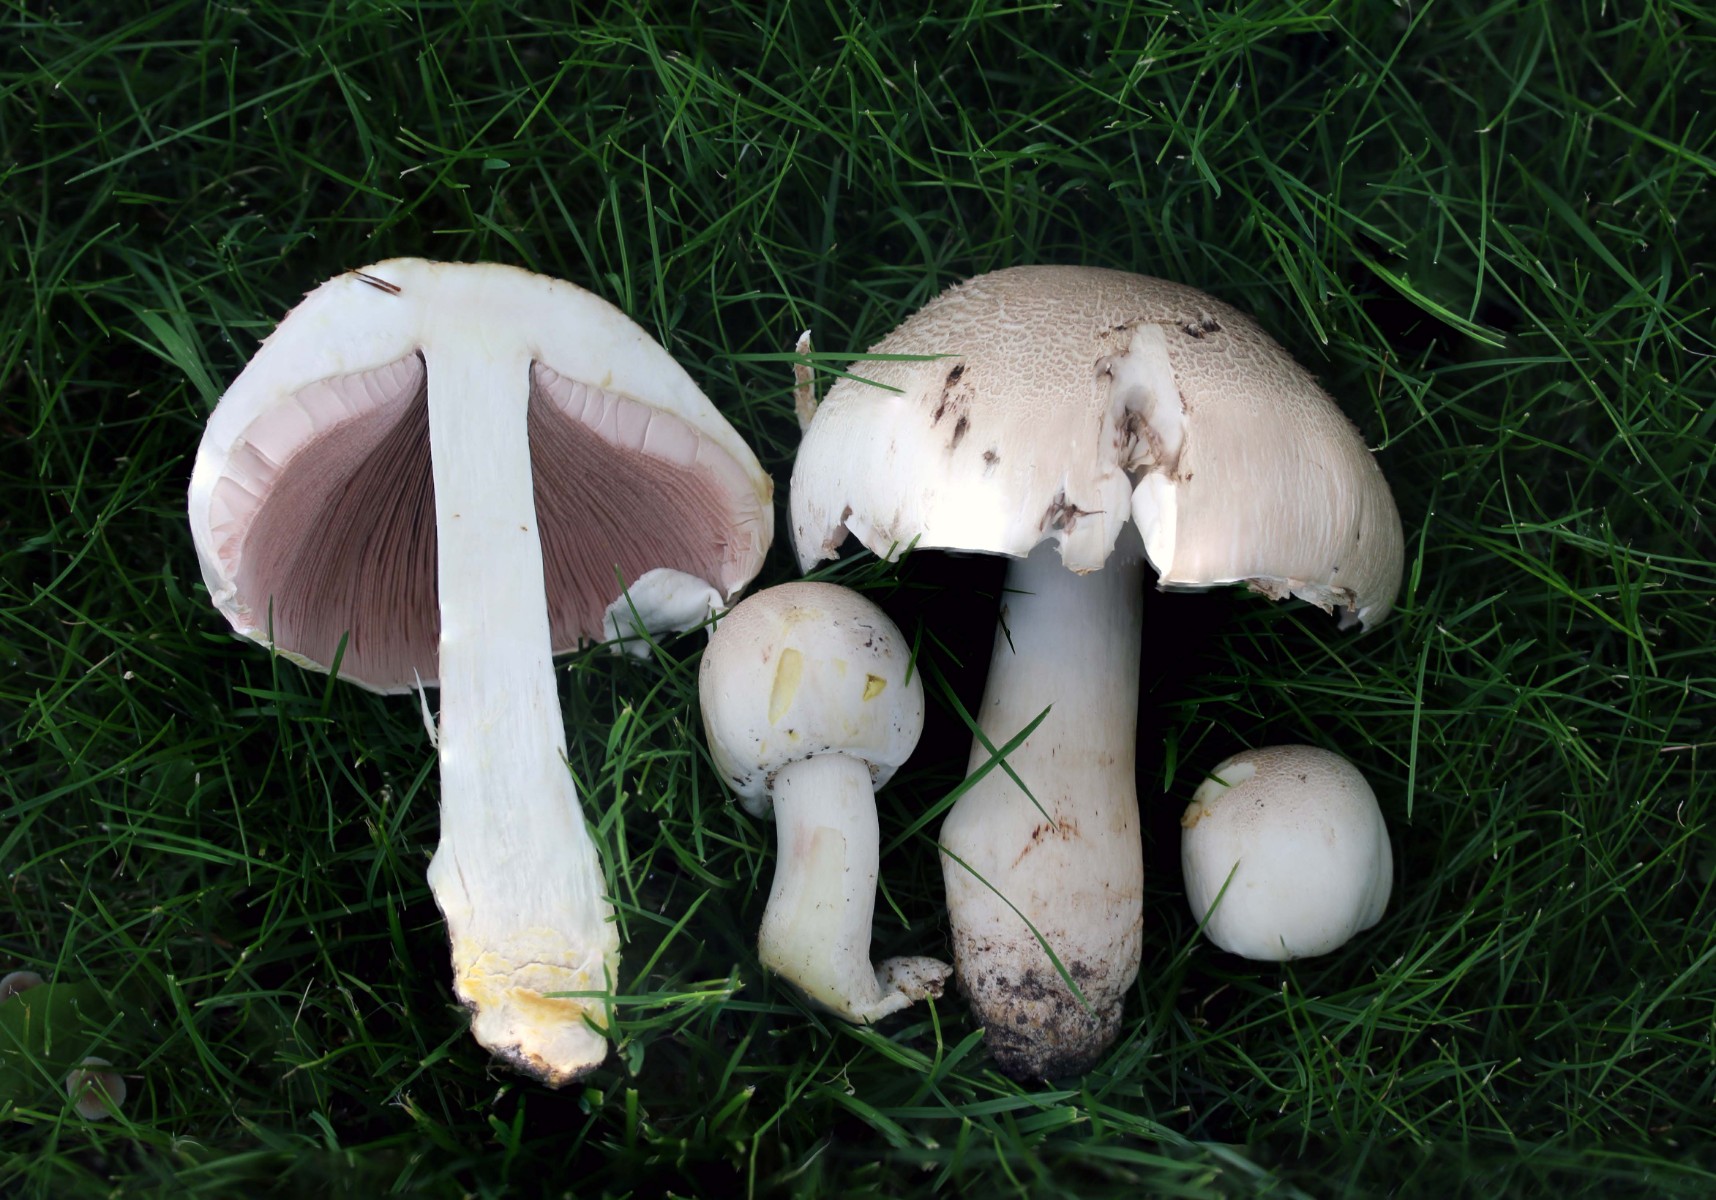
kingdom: Fungi
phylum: Basidiomycota
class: Agaricomycetes
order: Agaricales
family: Agaricaceae
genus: Agaricus
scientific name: Agaricus xanthodermus
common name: karbol-champignon
